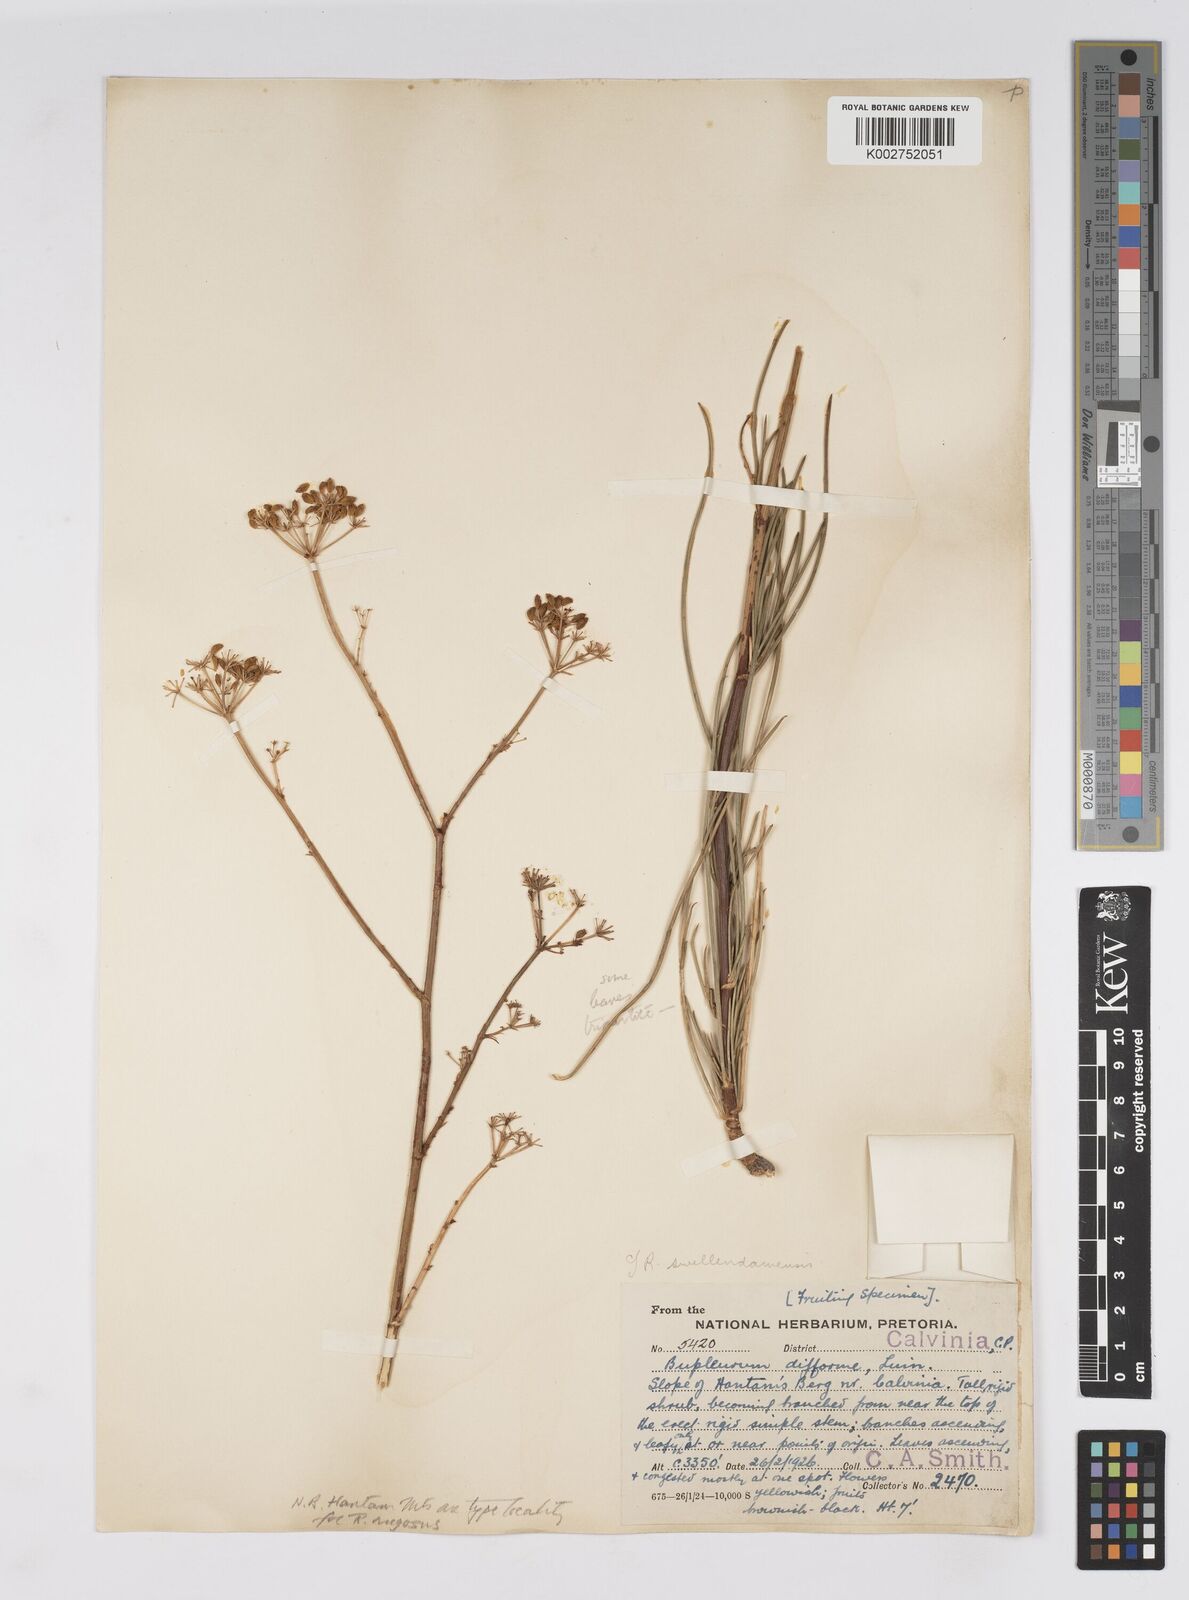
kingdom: Plantae
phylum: Tracheophyta
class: Magnoliopsida
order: Apiales
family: Apiaceae
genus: Anginon
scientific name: Anginon fruticosum
